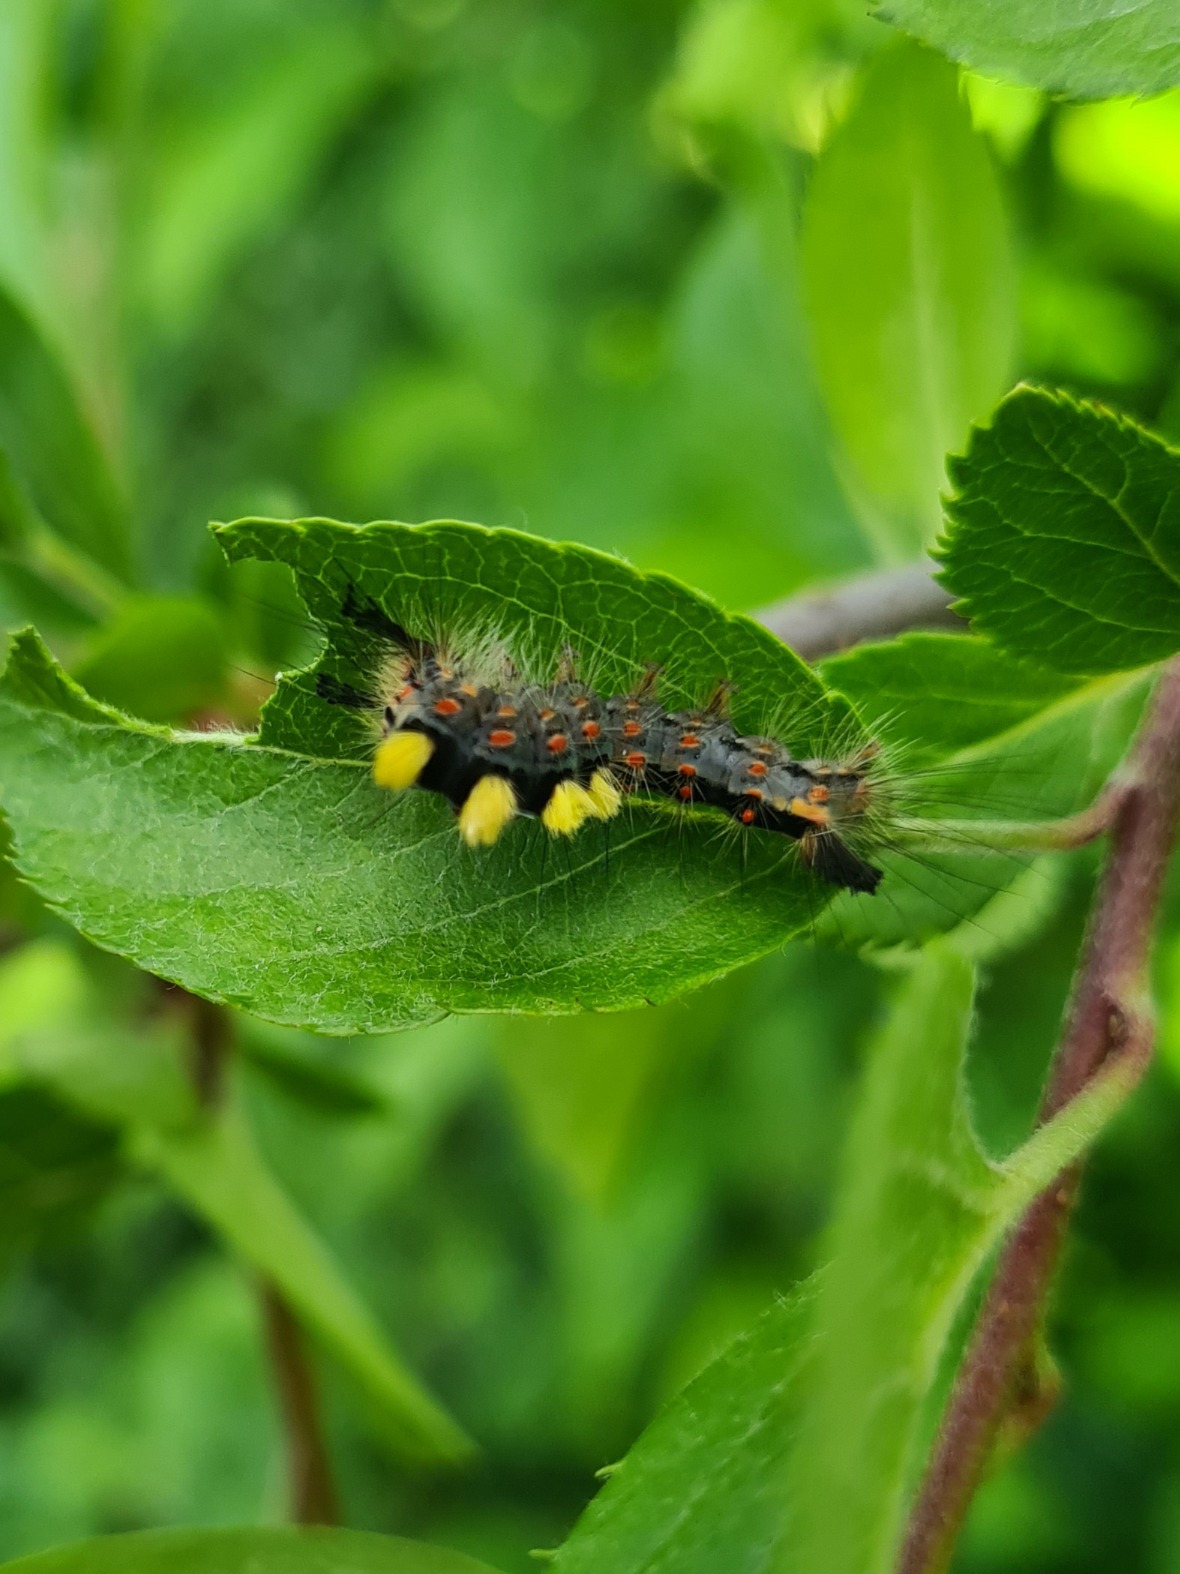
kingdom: Animalia
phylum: Arthropoda
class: Insecta
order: Lepidoptera
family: Erebidae
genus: Orgyia
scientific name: Orgyia antiqua
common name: Lille penselspinder
